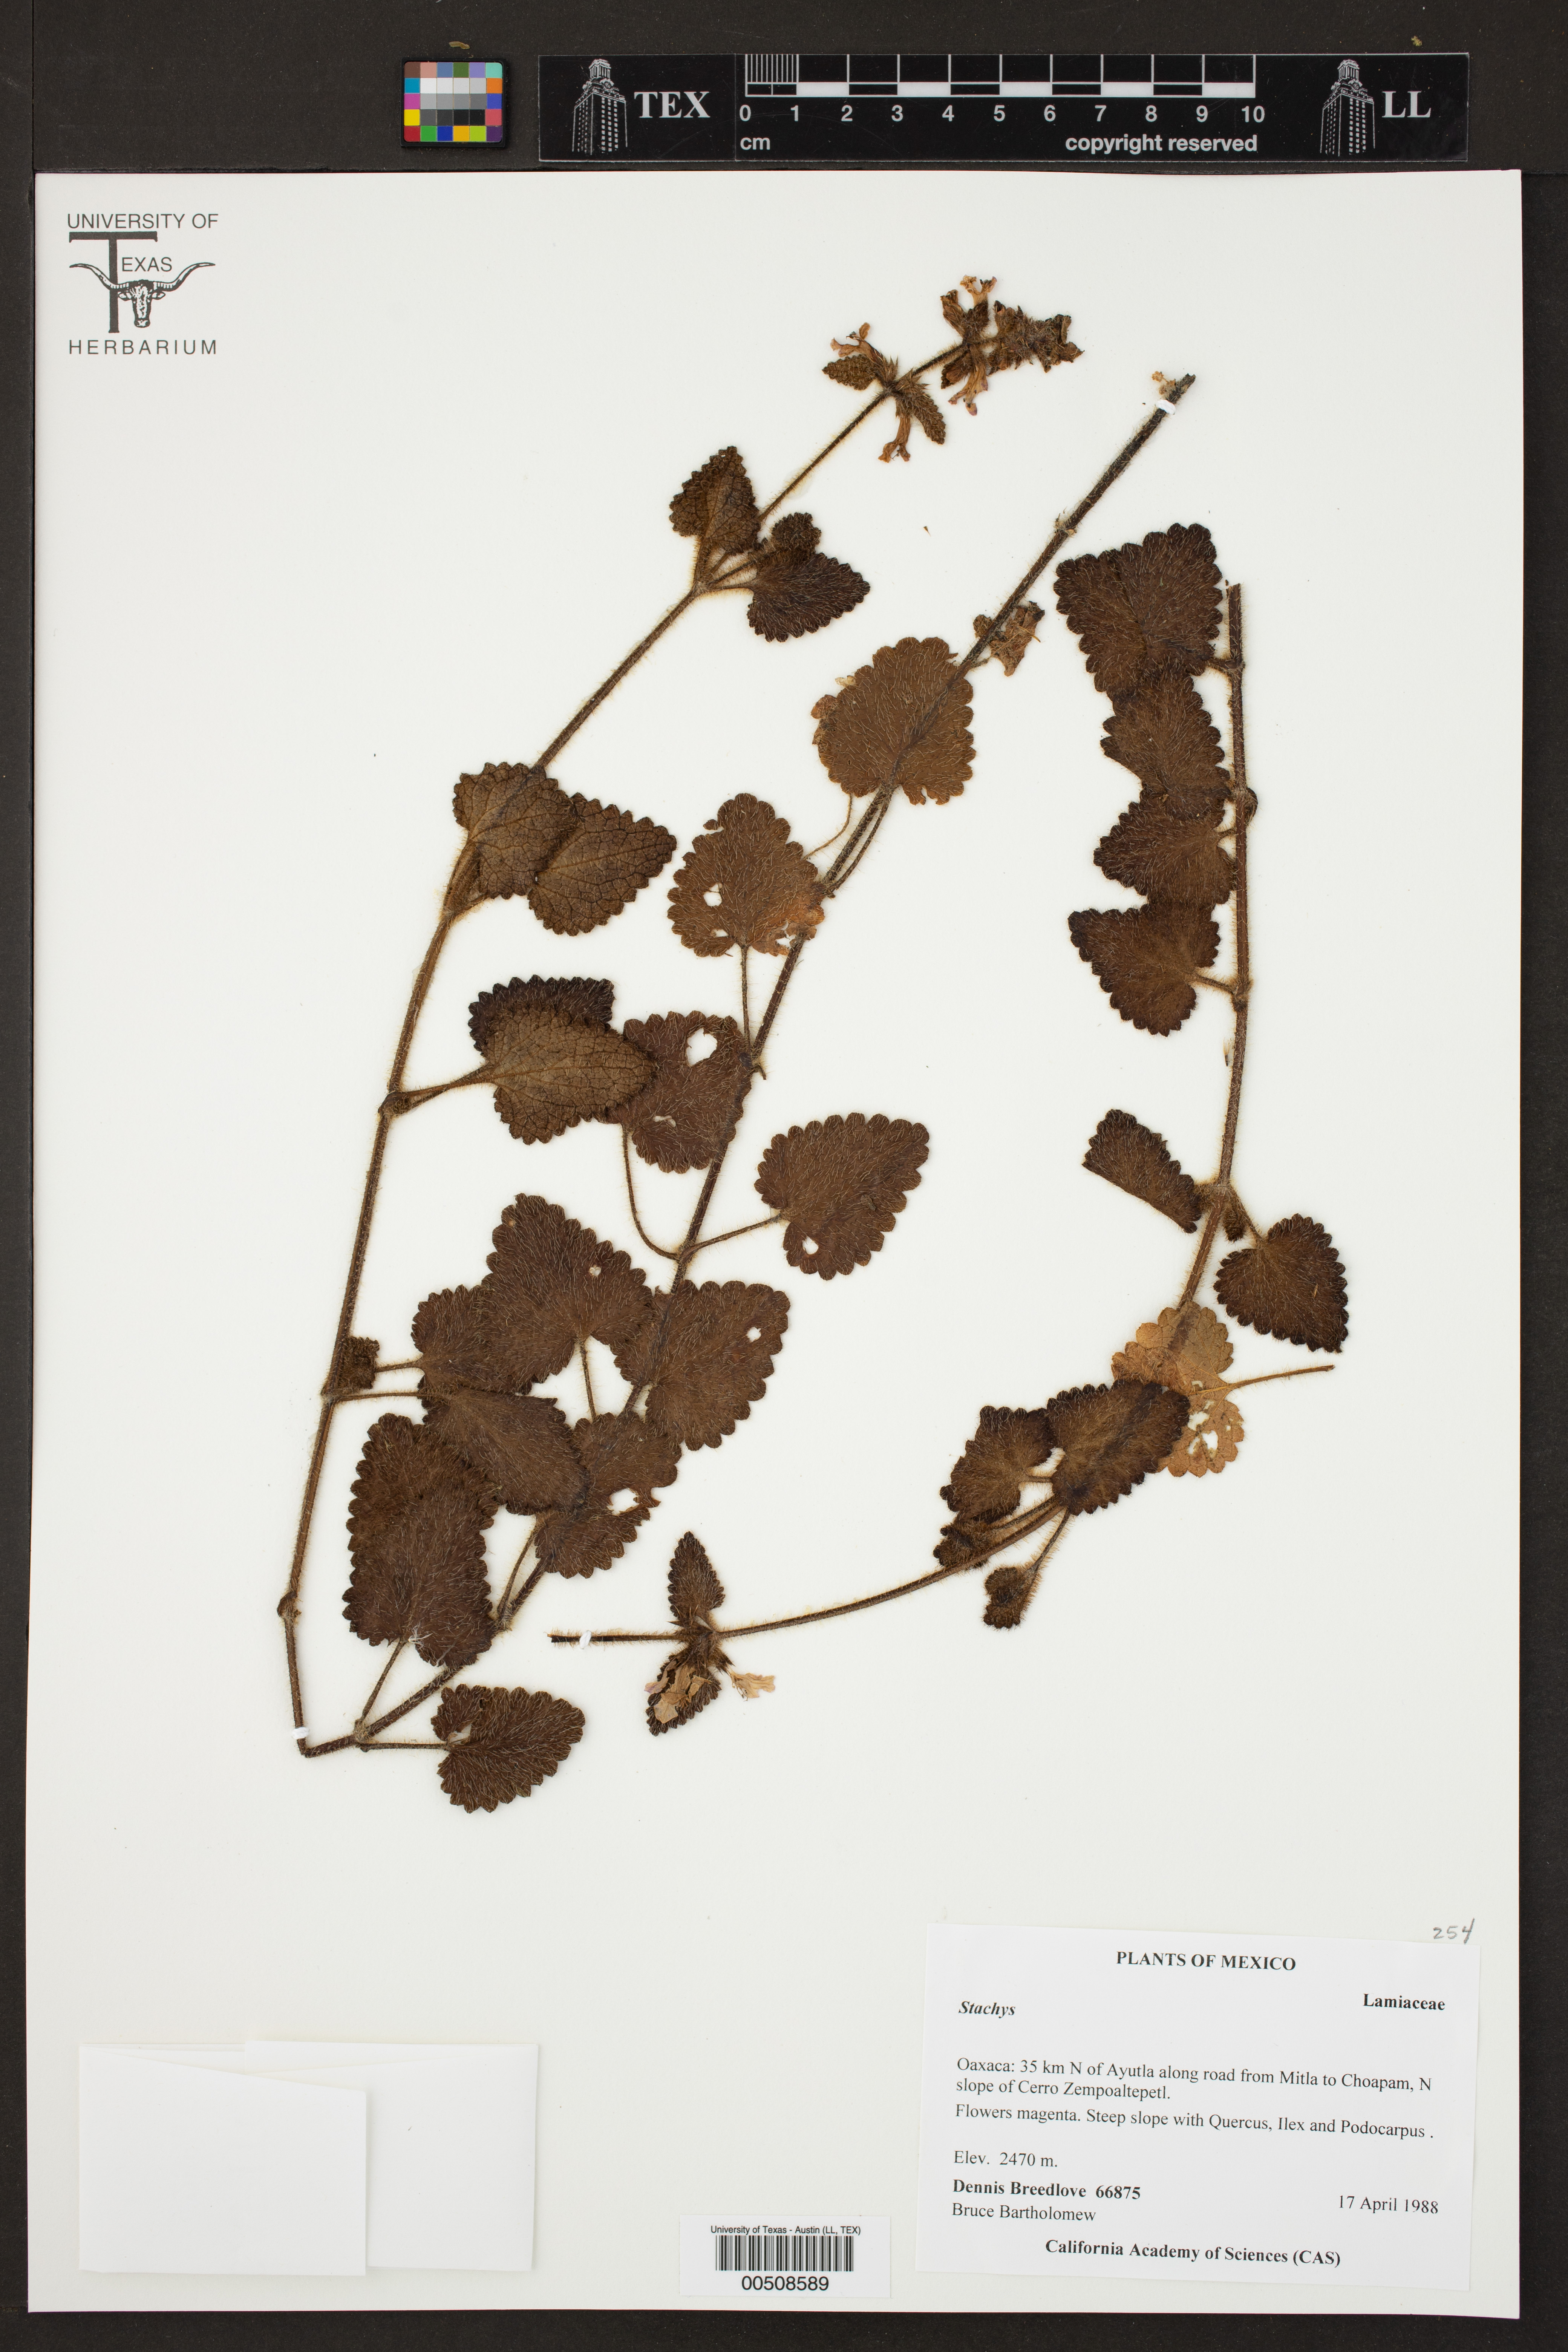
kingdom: Plantae
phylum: Tracheophyta
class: Magnoliopsida
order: Lamiales
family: Lamiaceae
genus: Stachys
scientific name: Stachys
